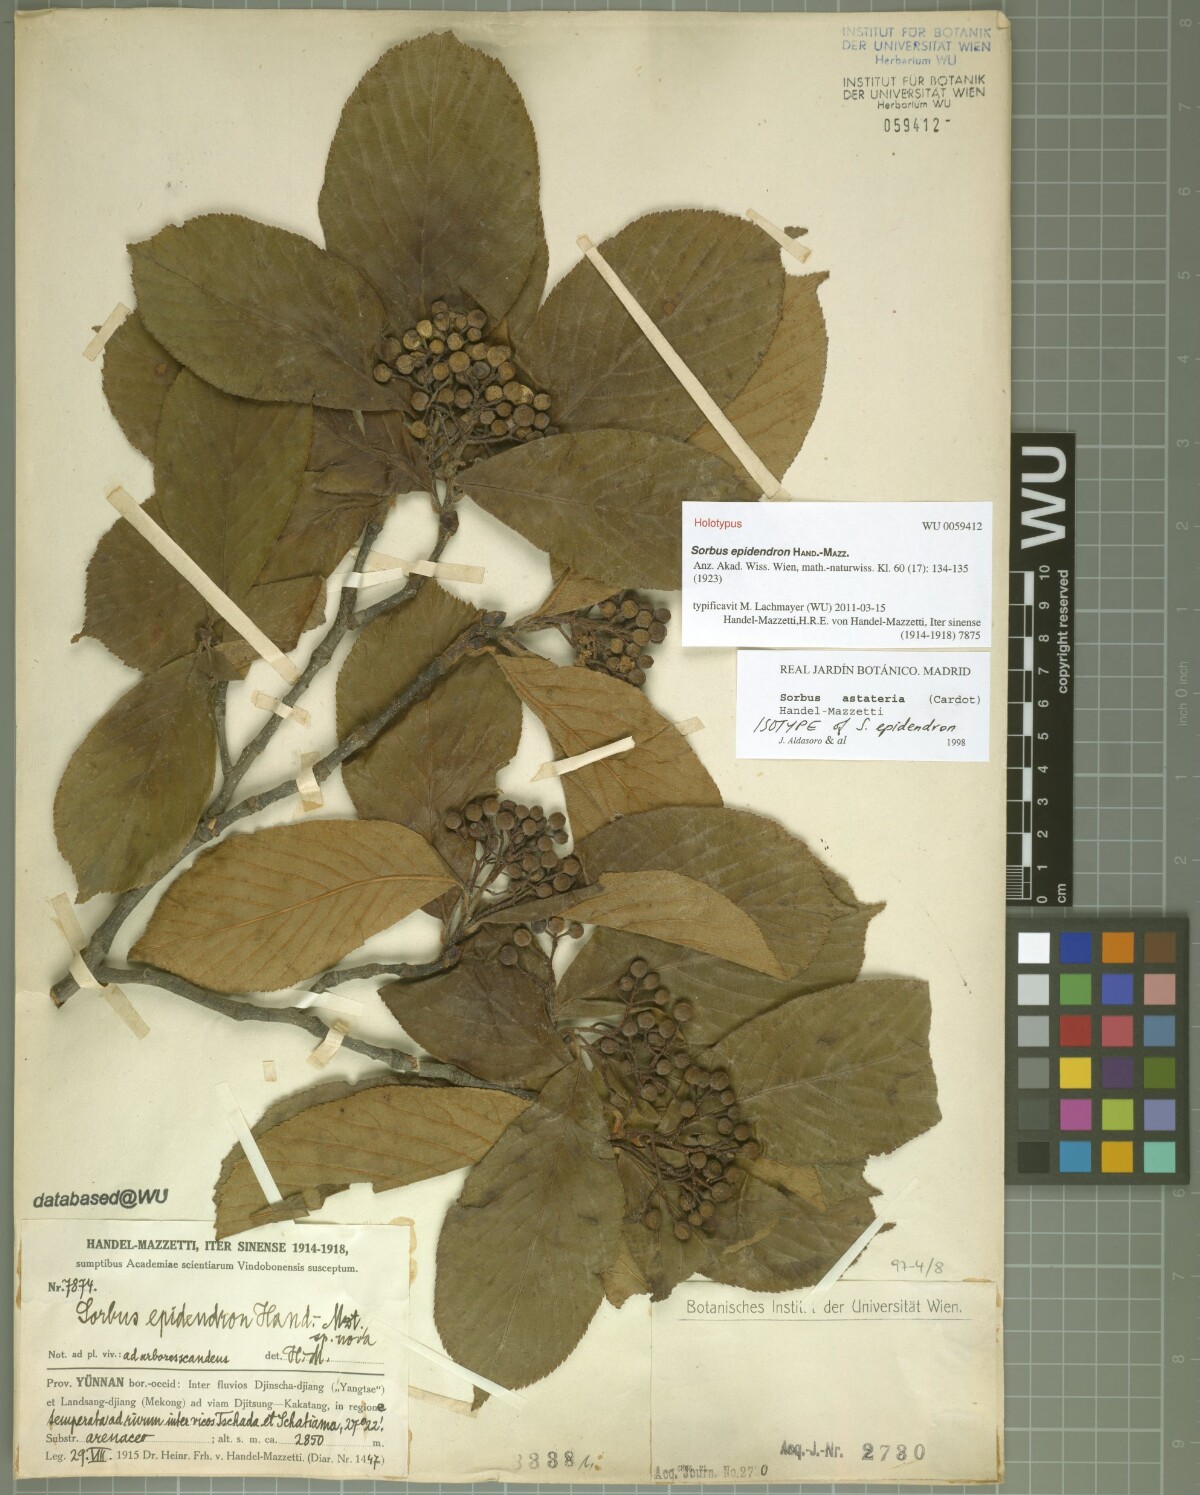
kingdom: Plantae
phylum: Tracheophyta
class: Magnoliopsida
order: Rosales
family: Rosaceae
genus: Sorbus
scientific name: Sorbus epidendron
